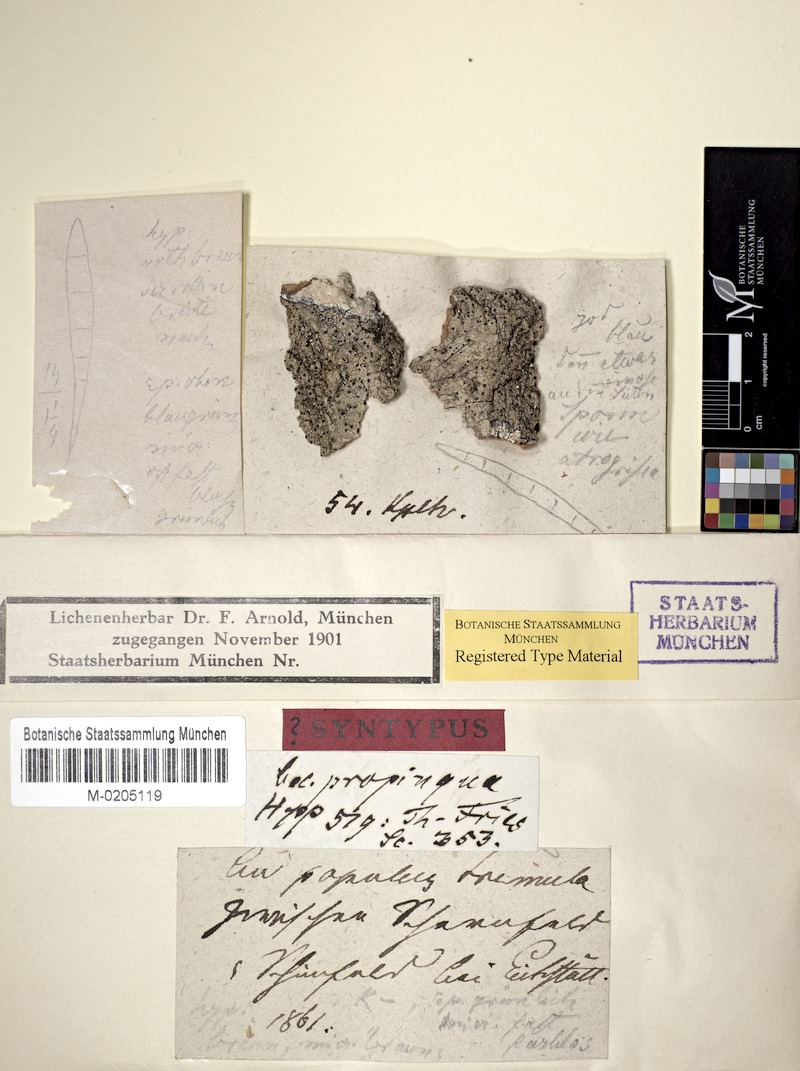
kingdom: Fungi
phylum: Ascomycota
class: Lecanoromycetes
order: Lecanorales
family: Ramalinaceae
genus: Bacidia
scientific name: Bacidia biatorina
